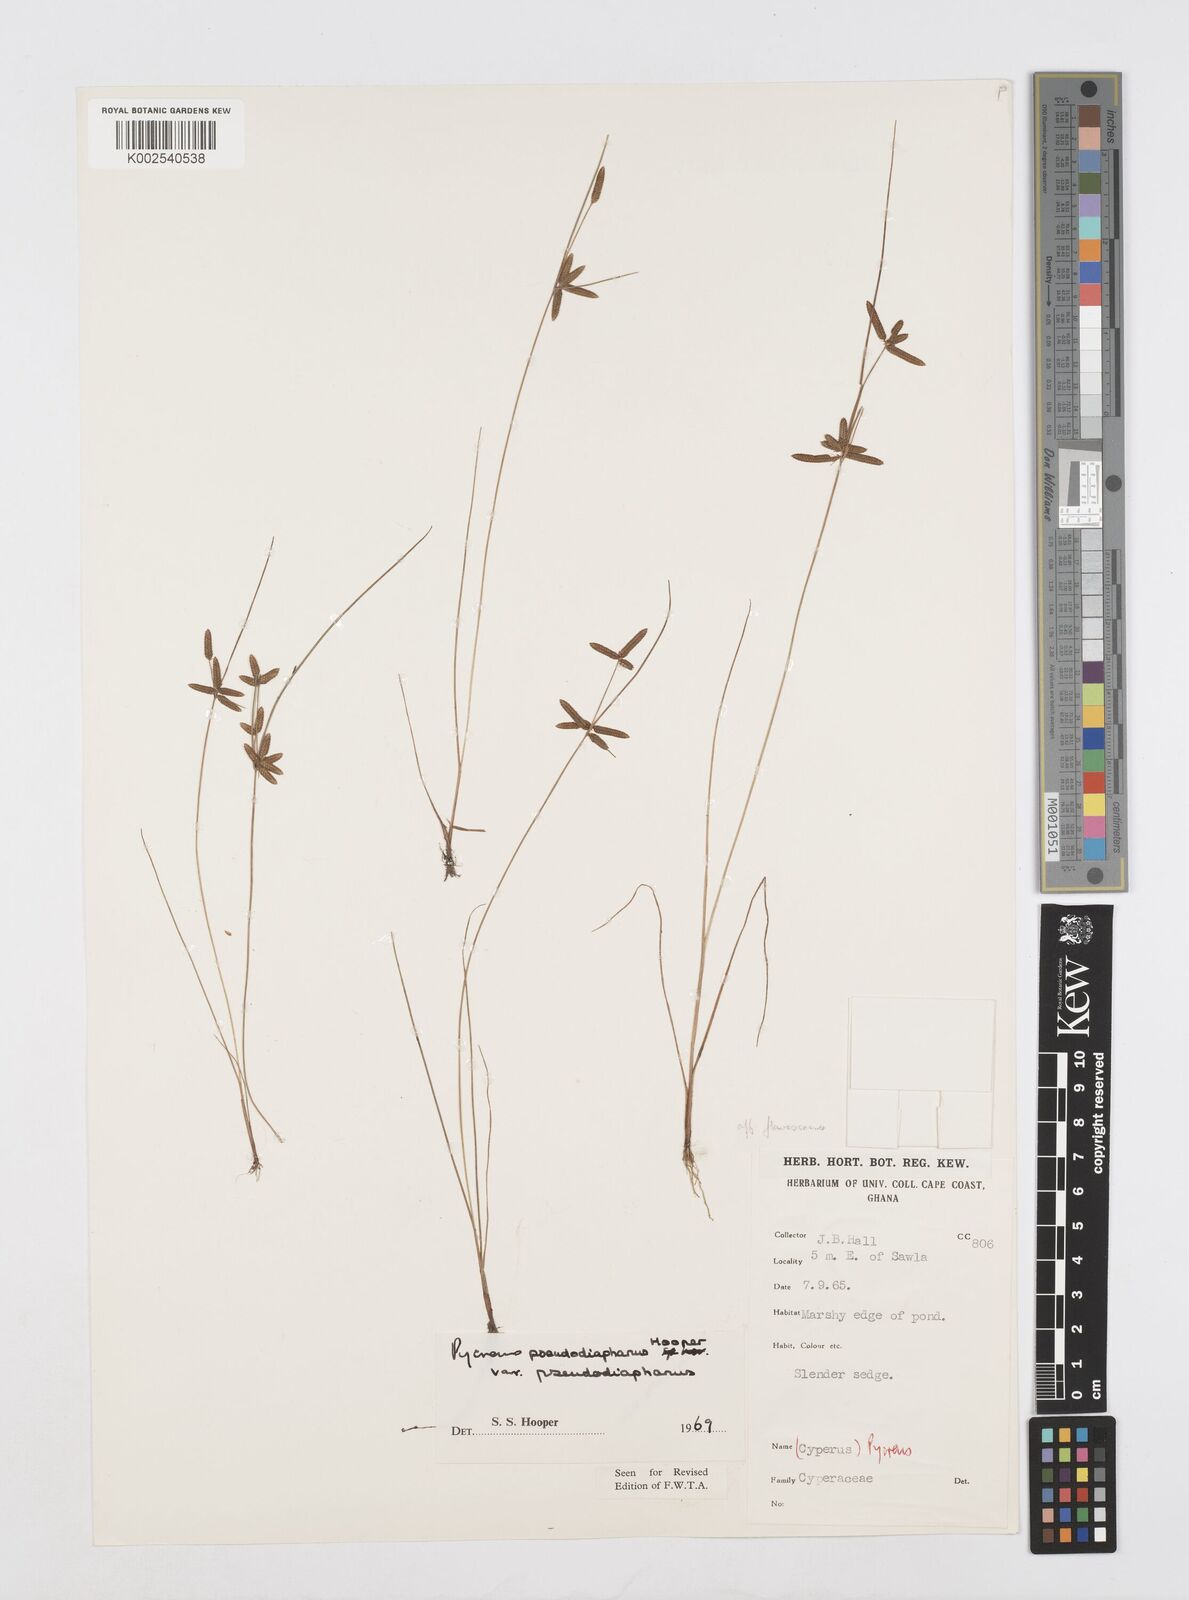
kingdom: Plantae
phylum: Tracheophyta
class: Liliopsida
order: Poales
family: Cyperaceae
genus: Cyperus
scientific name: Cyperus pseudodiaphanus
